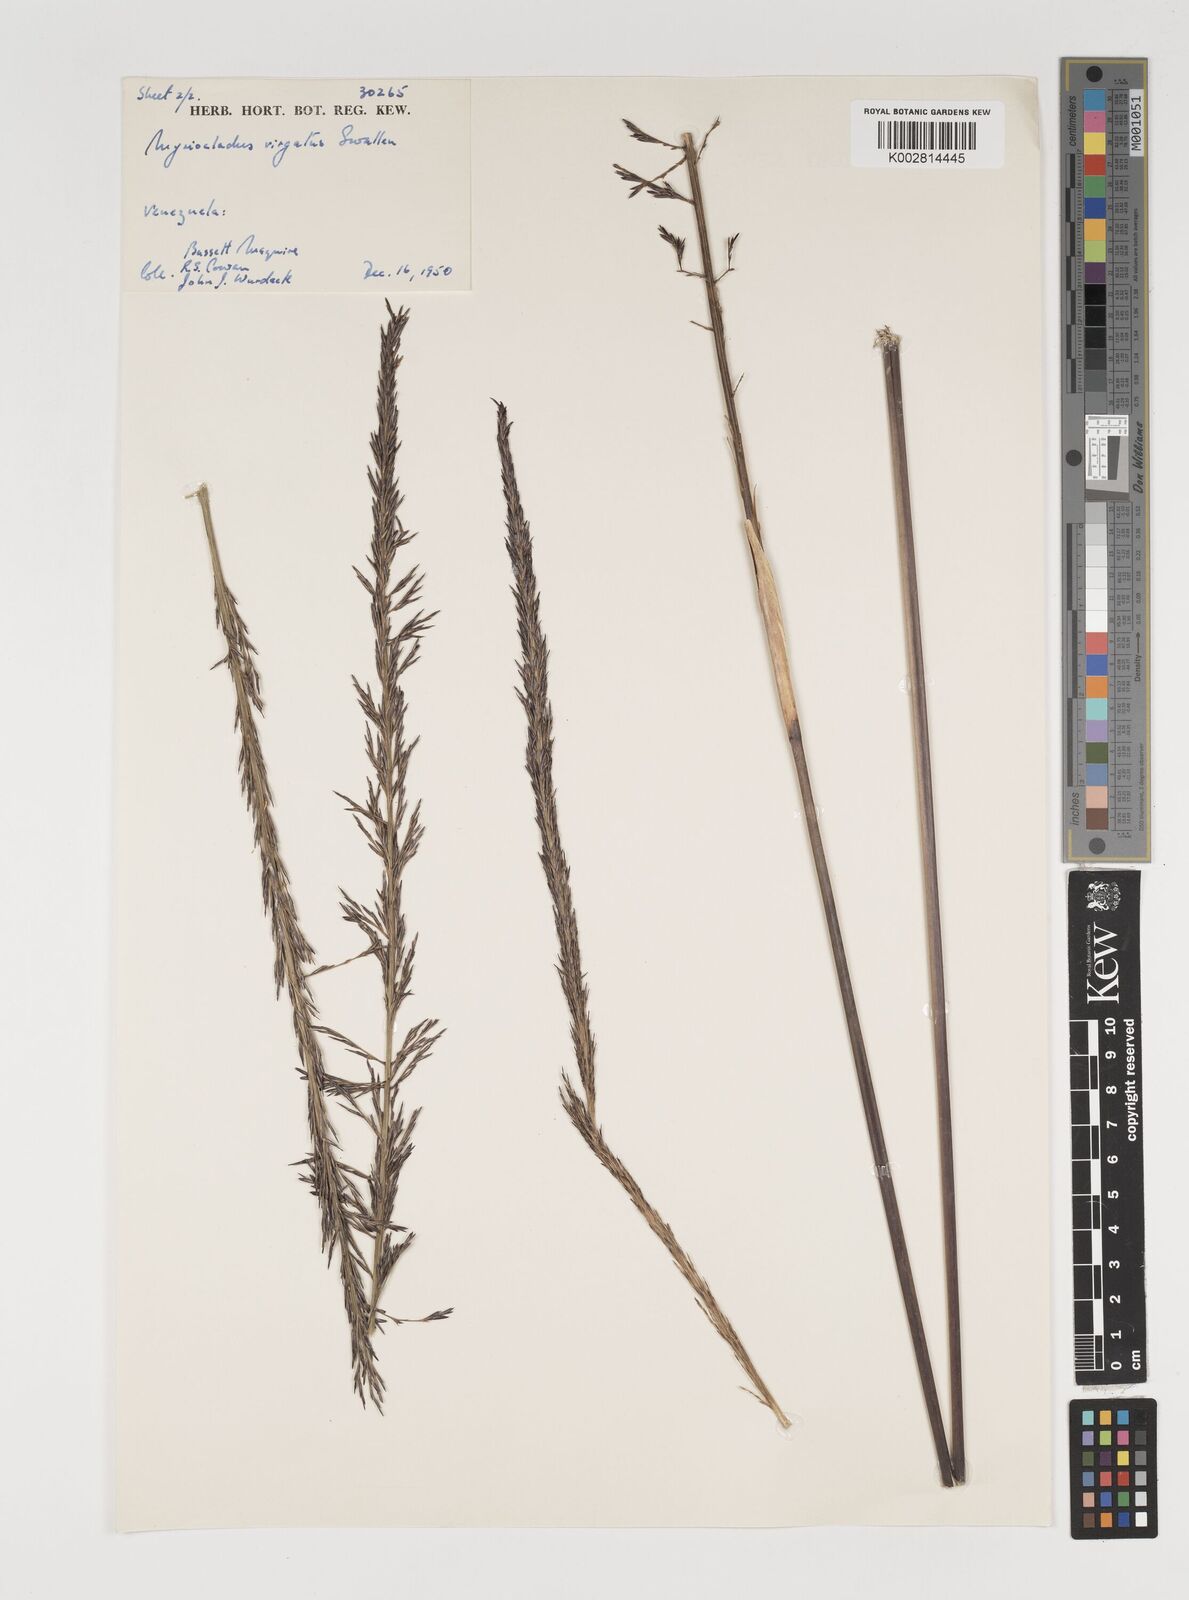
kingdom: Plantae
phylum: Tracheophyta
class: Liliopsida
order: Poales
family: Poaceae
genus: Myriocladus
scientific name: Myriocladus virgatus
